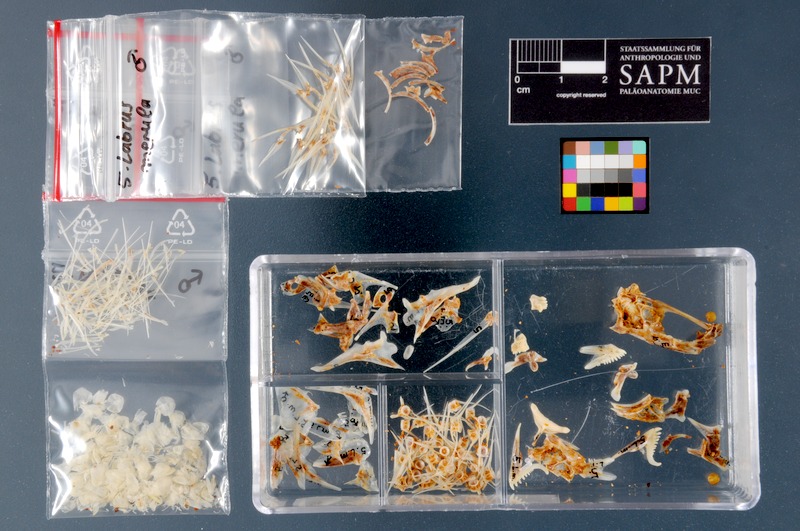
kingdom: Animalia
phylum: Chordata
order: Perciformes
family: Labridae
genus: Labrus
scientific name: Labrus merula
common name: Brown wrasse
